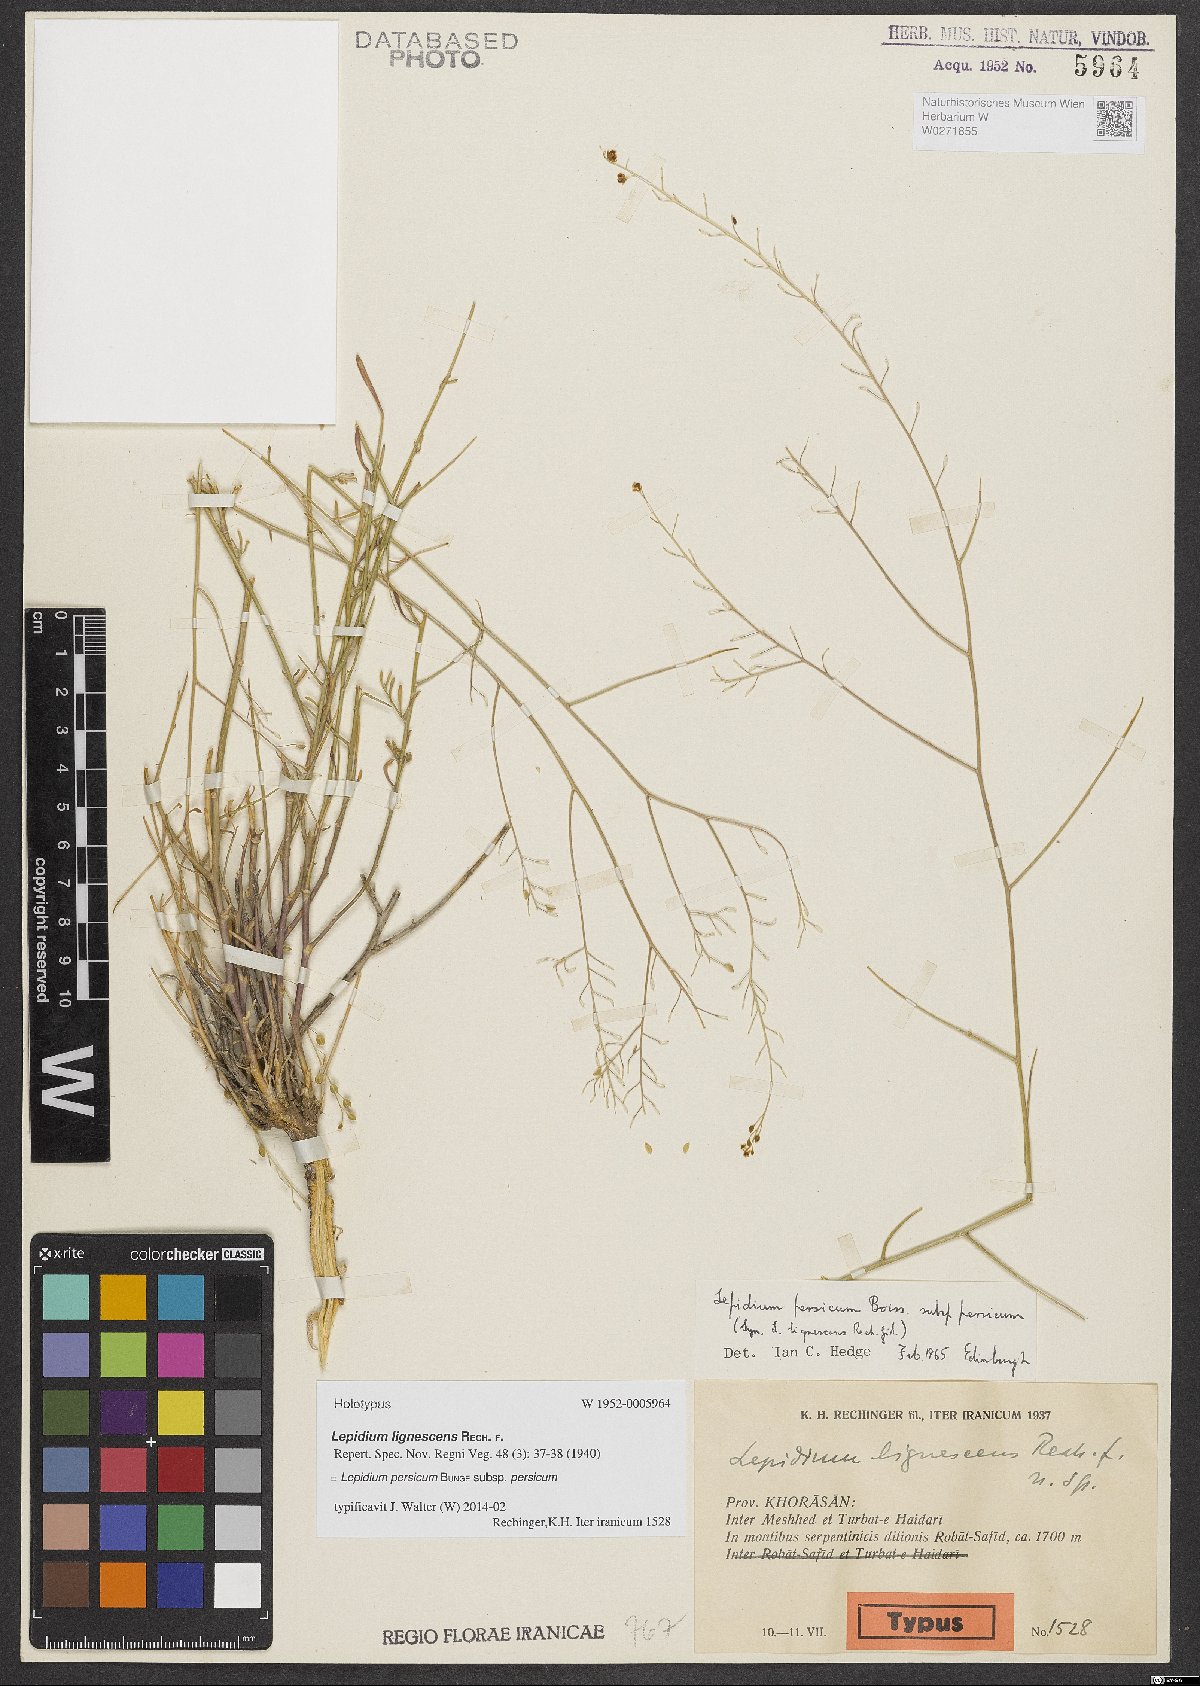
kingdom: Plantae
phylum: Tracheophyta
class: Magnoliopsida
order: Brassicales
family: Brassicaceae
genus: Lepidium
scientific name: Lepidium persicum
